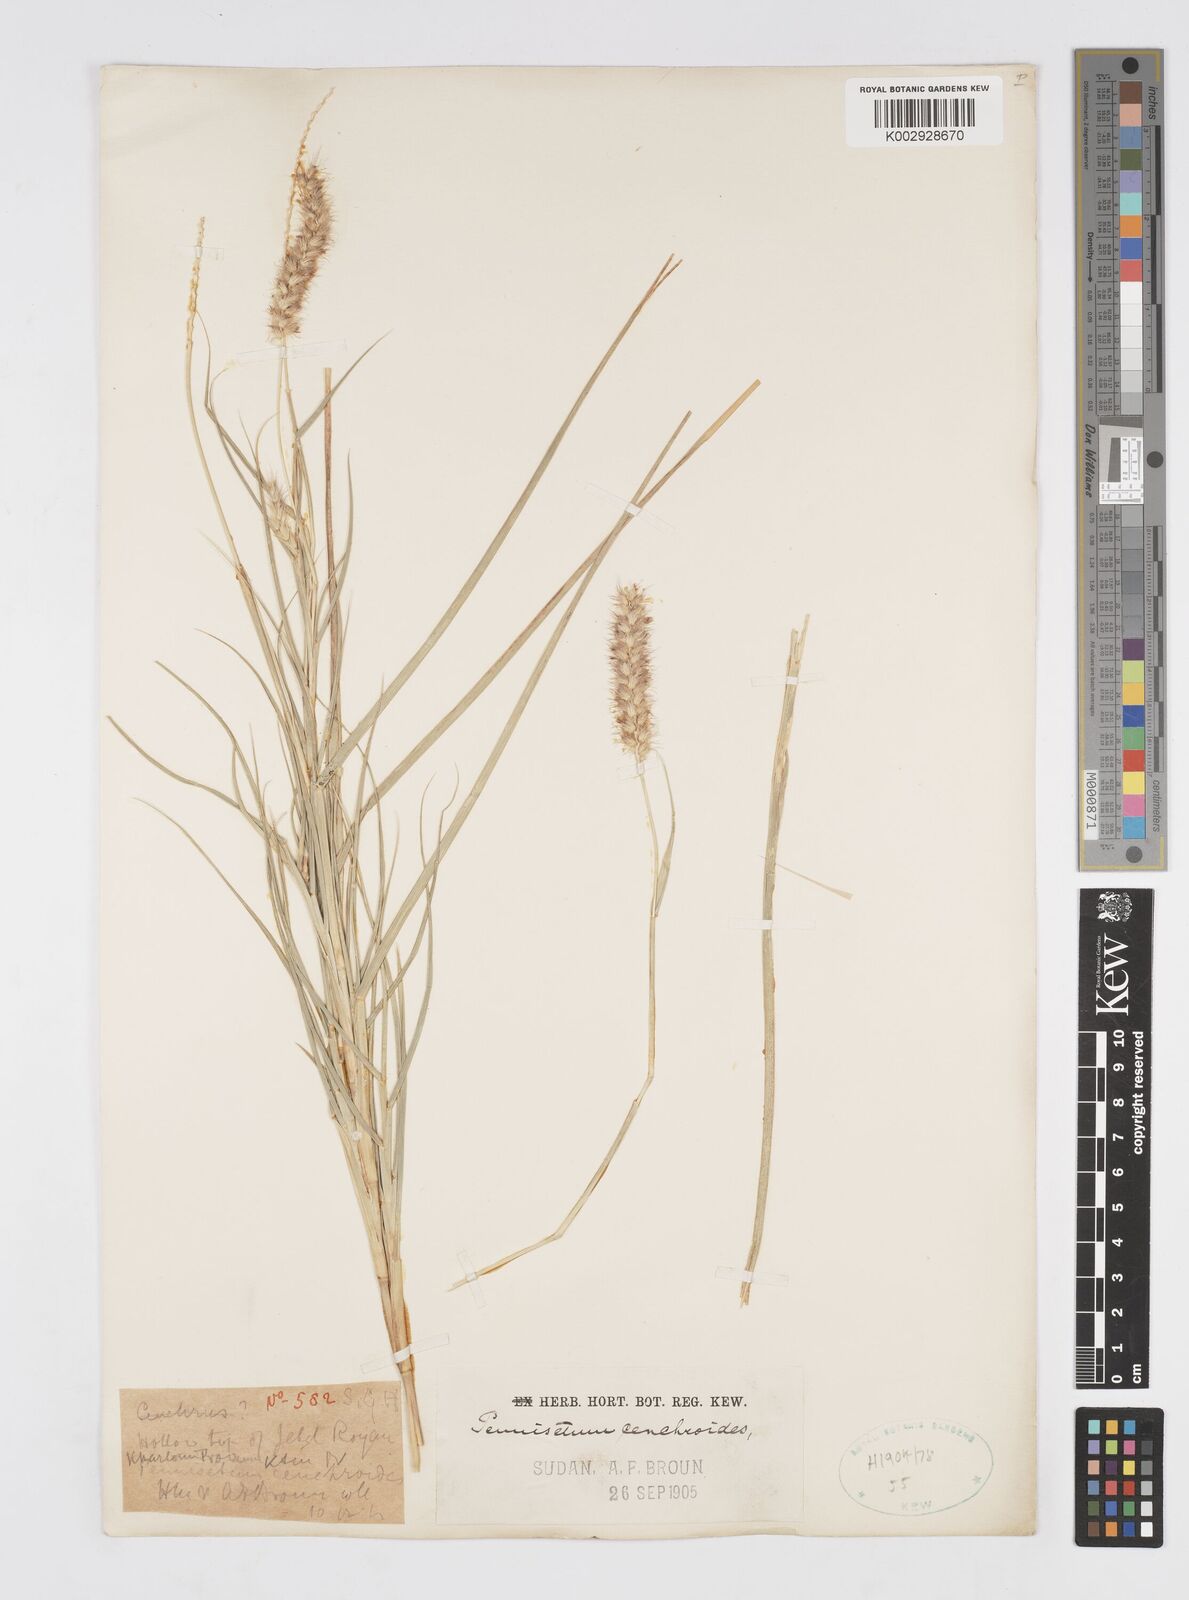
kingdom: Plantae
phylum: Tracheophyta
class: Liliopsida
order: Poales
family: Poaceae
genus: Cenchrus
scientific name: Cenchrus ciliaris
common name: Buffelgrass
